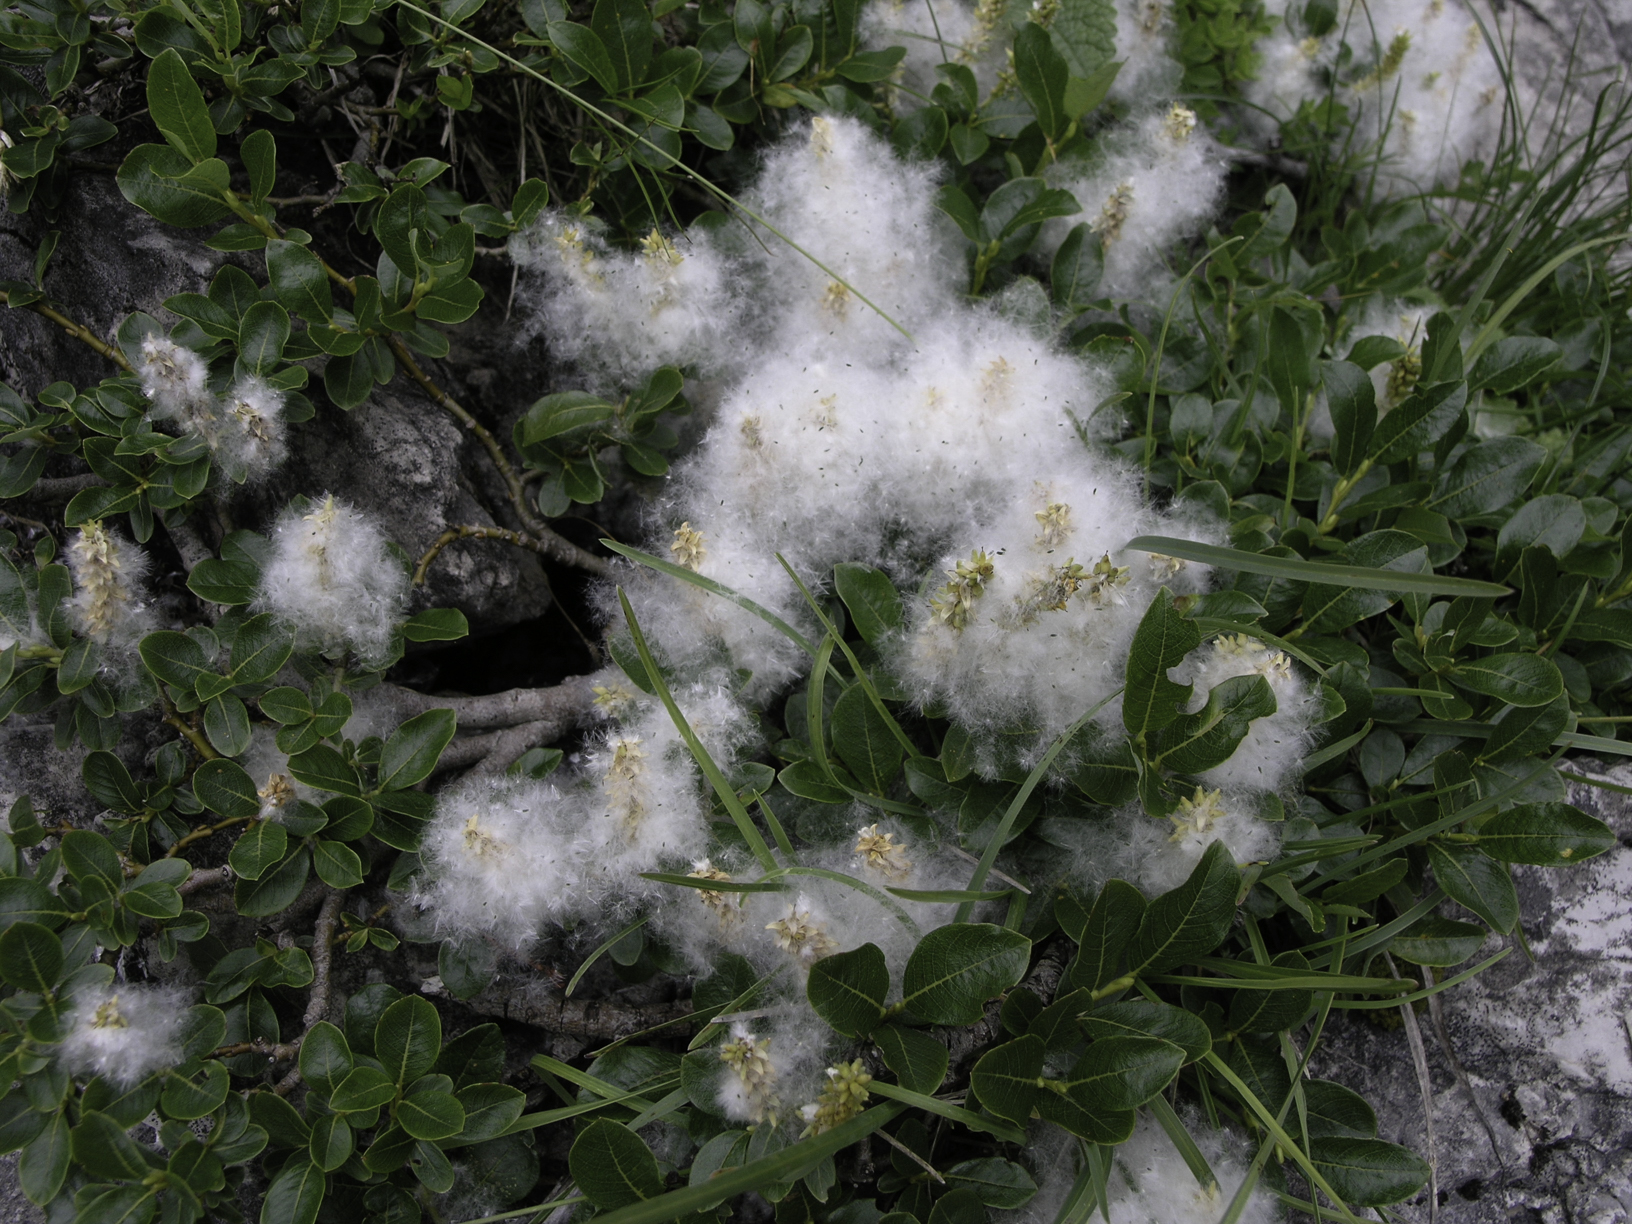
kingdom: Plantae
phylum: Tracheophyta
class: Magnoliopsida
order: Malpighiales
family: Salicaceae
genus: Salix
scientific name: Salix alpina
